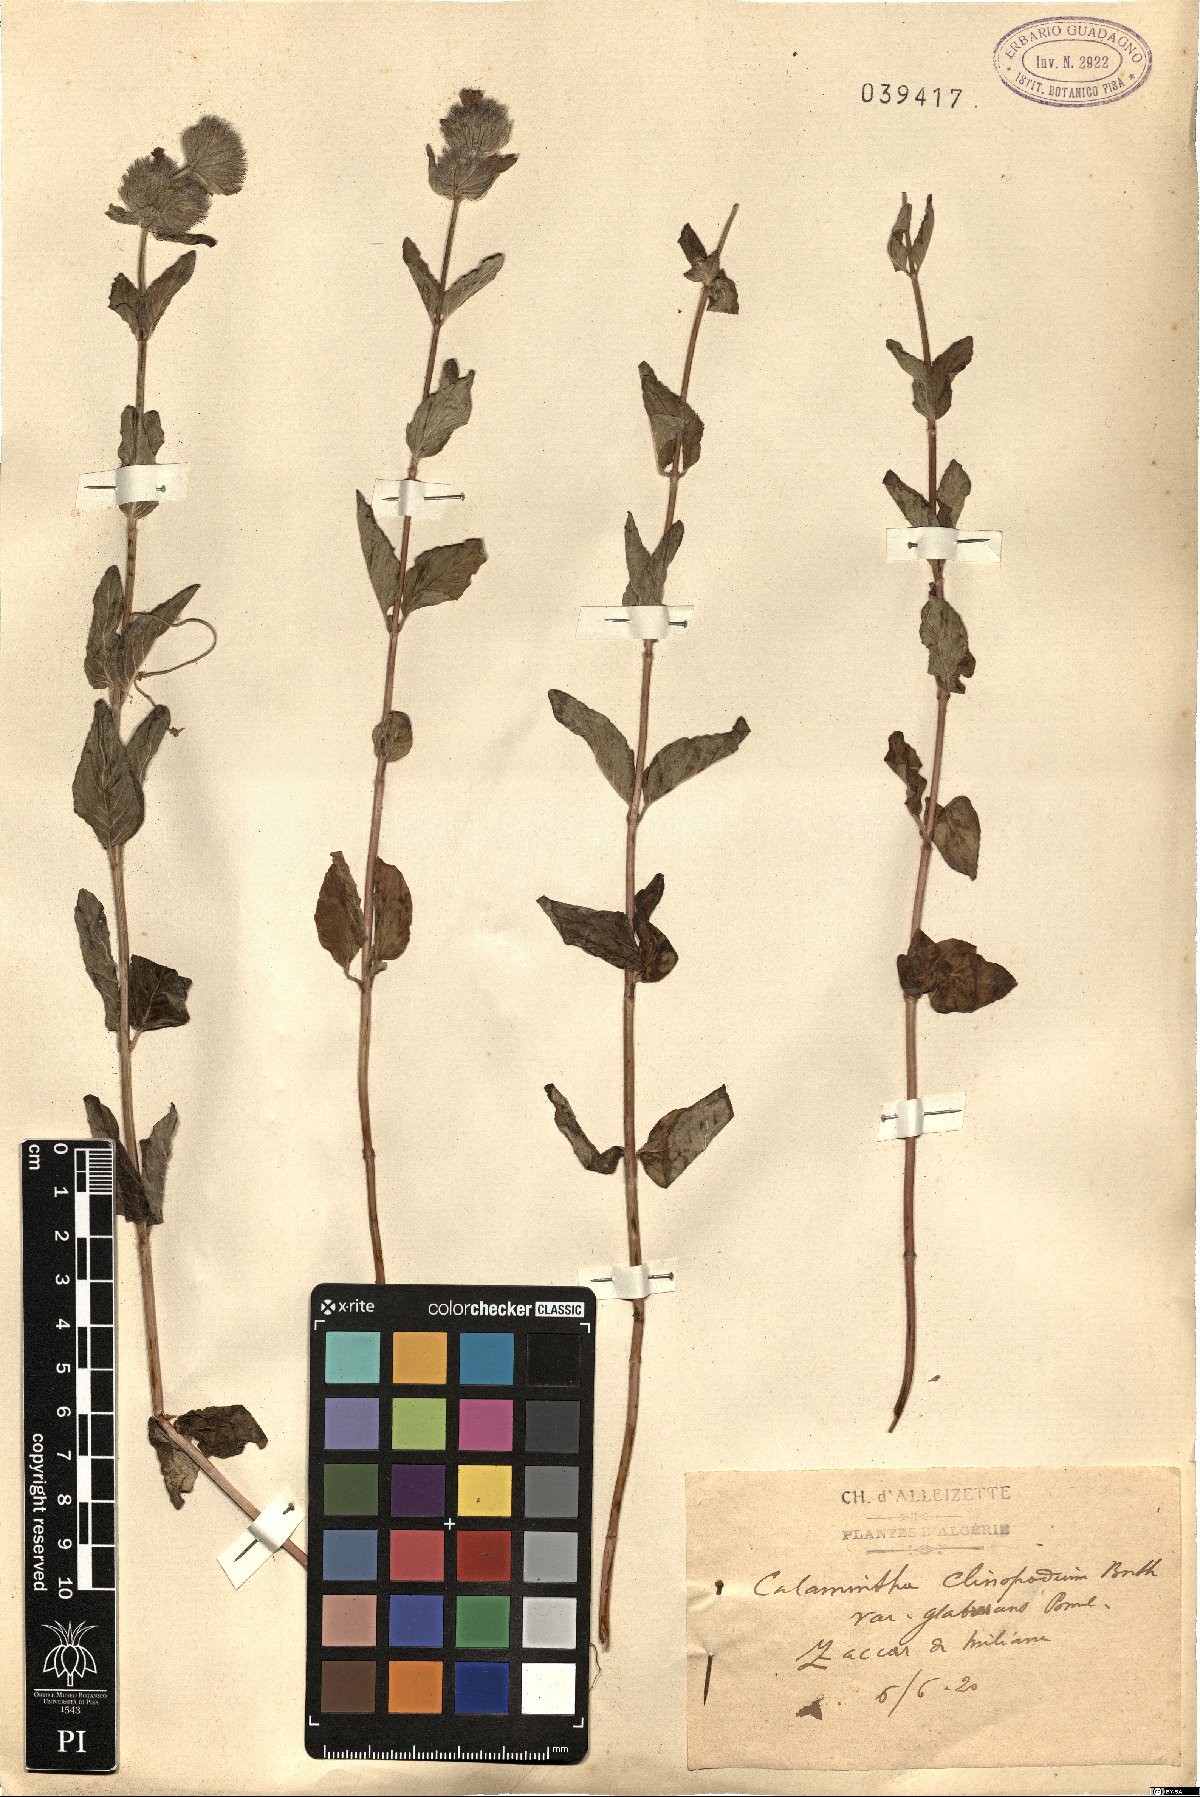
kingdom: Plantae
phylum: Tracheophyta
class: Magnoliopsida
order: Lamiales
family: Lamiaceae
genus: Clinopodium
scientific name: Clinopodium vulgare
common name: Wild basil
